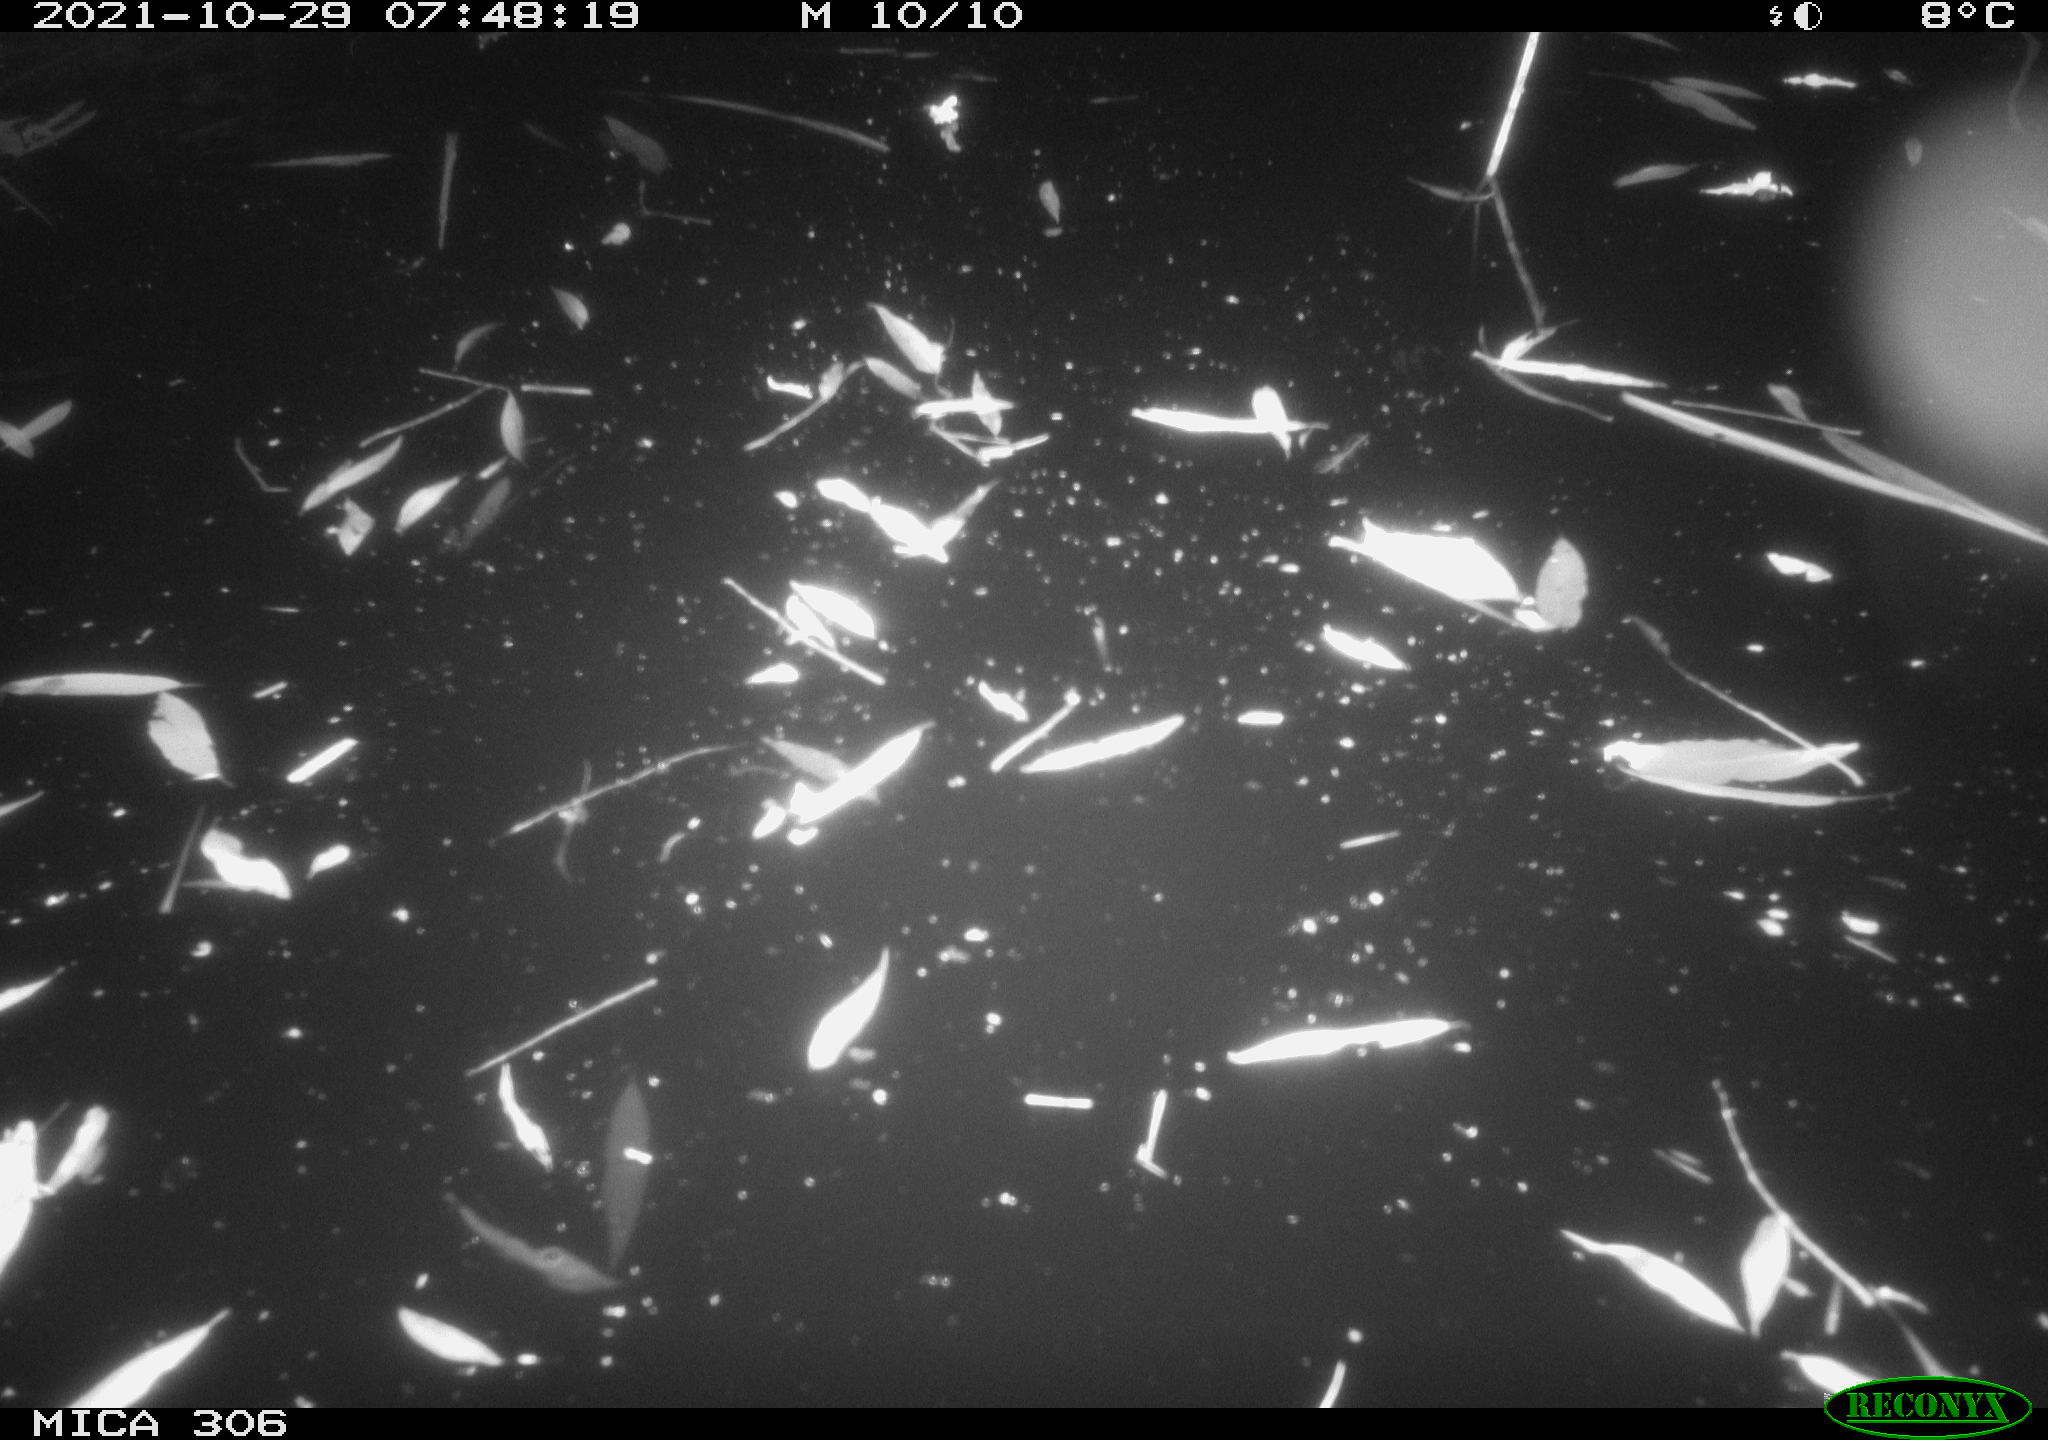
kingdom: Animalia
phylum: Chordata
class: Mammalia
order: Rodentia
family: Cricetidae
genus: Ondatra
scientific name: Ondatra zibethicus
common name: Muskrat
